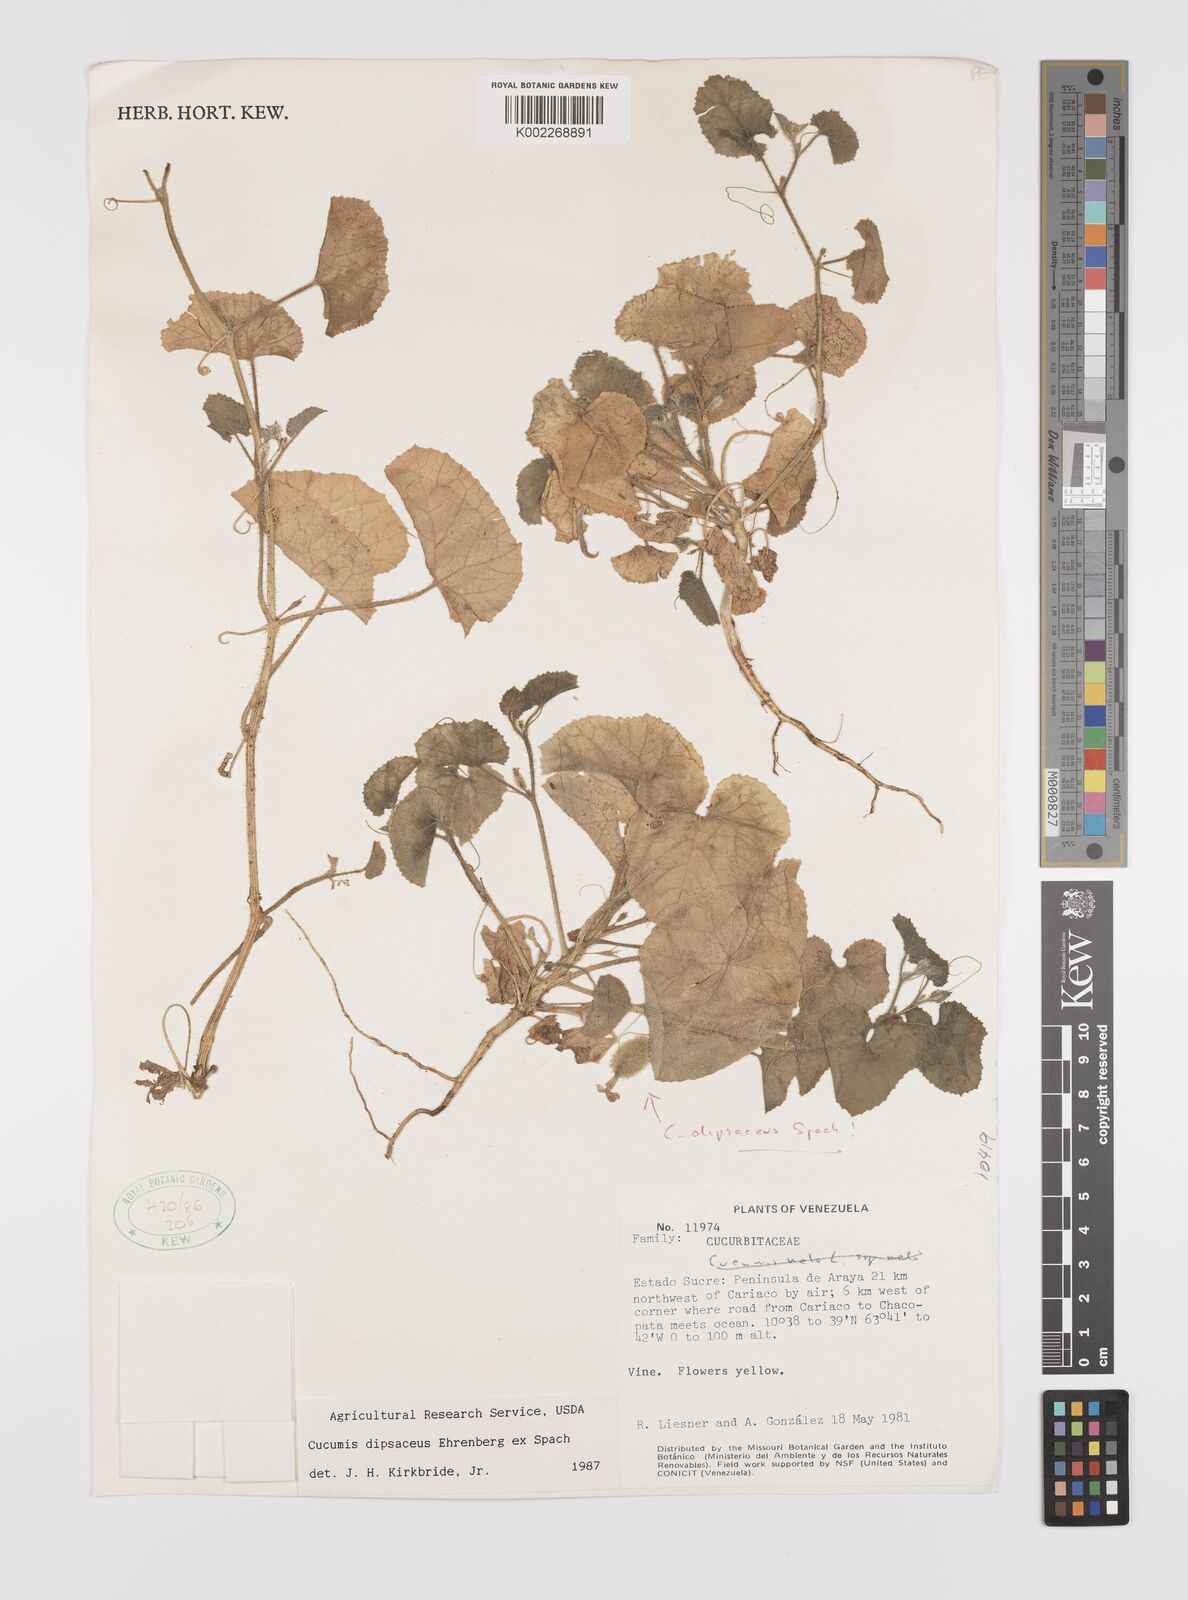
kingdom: Plantae
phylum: Tracheophyta
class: Magnoliopsida
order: Cucurbitales
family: Cucurbitaceae
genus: Cucumis
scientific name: Cucumis
